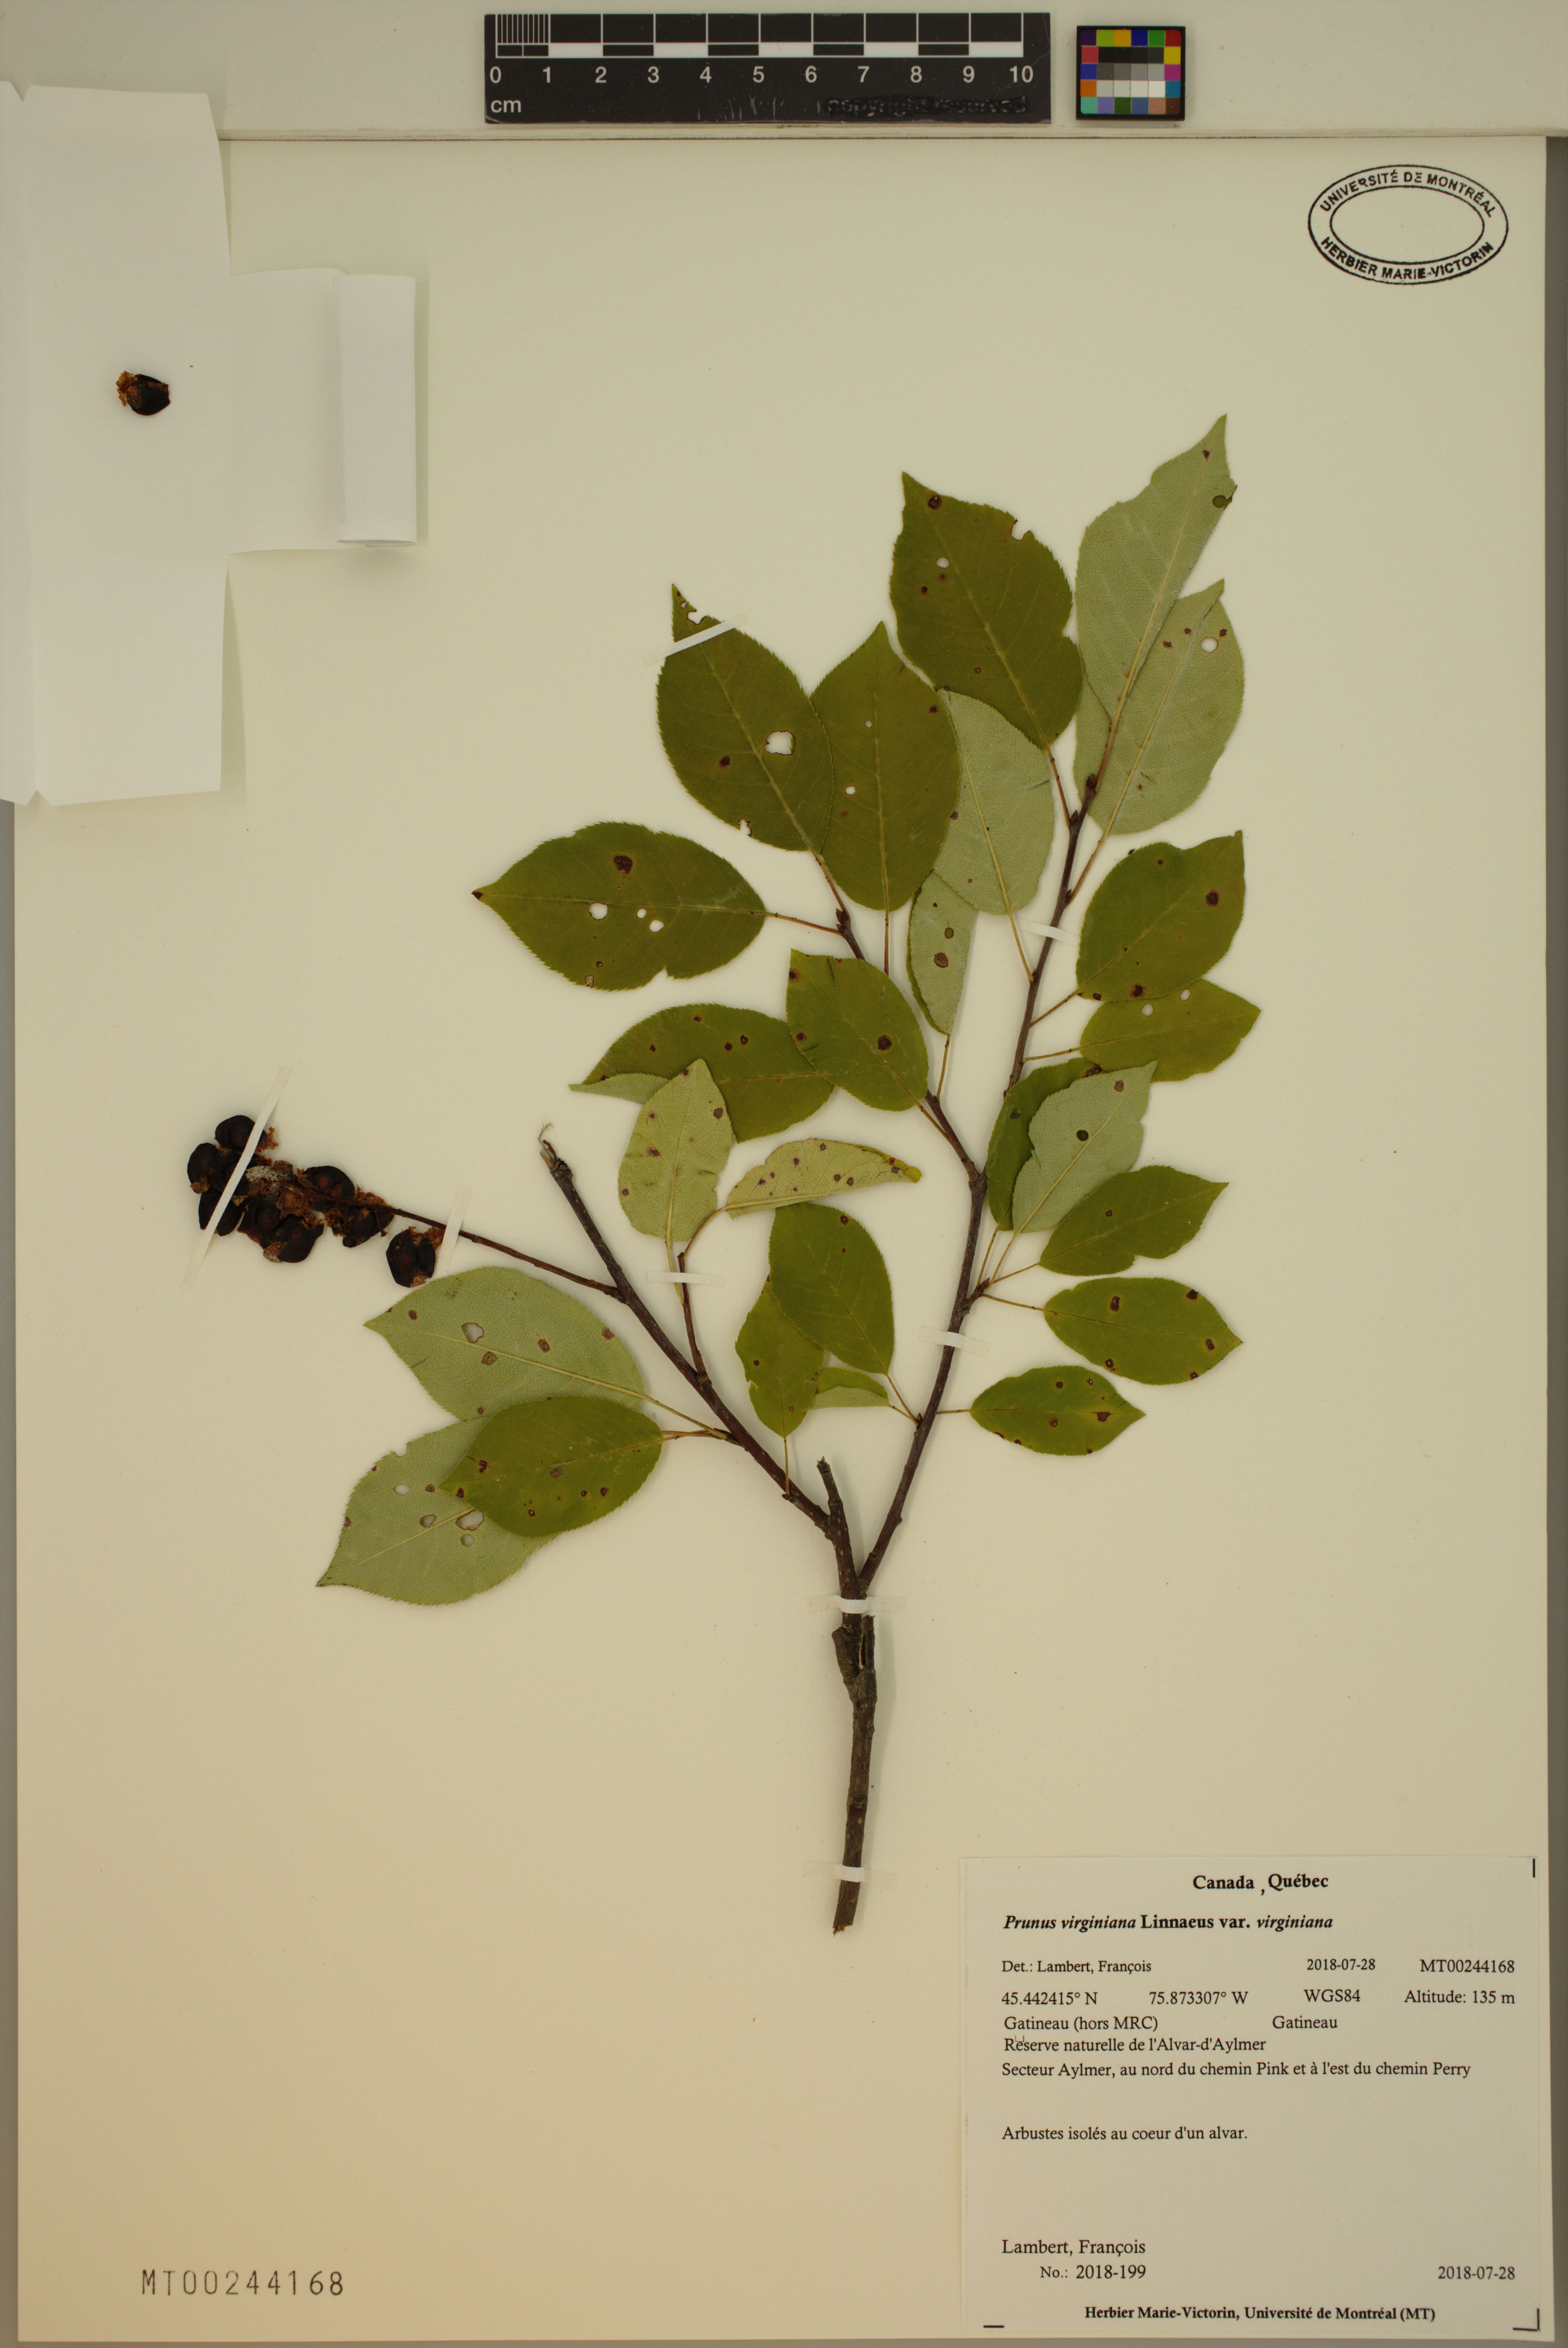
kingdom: Plantae
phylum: Tracheophyta
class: Magnoliopsida
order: Rosales
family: Rosaceae
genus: Prunus
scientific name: Prunus virginiana
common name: Chokecherry
